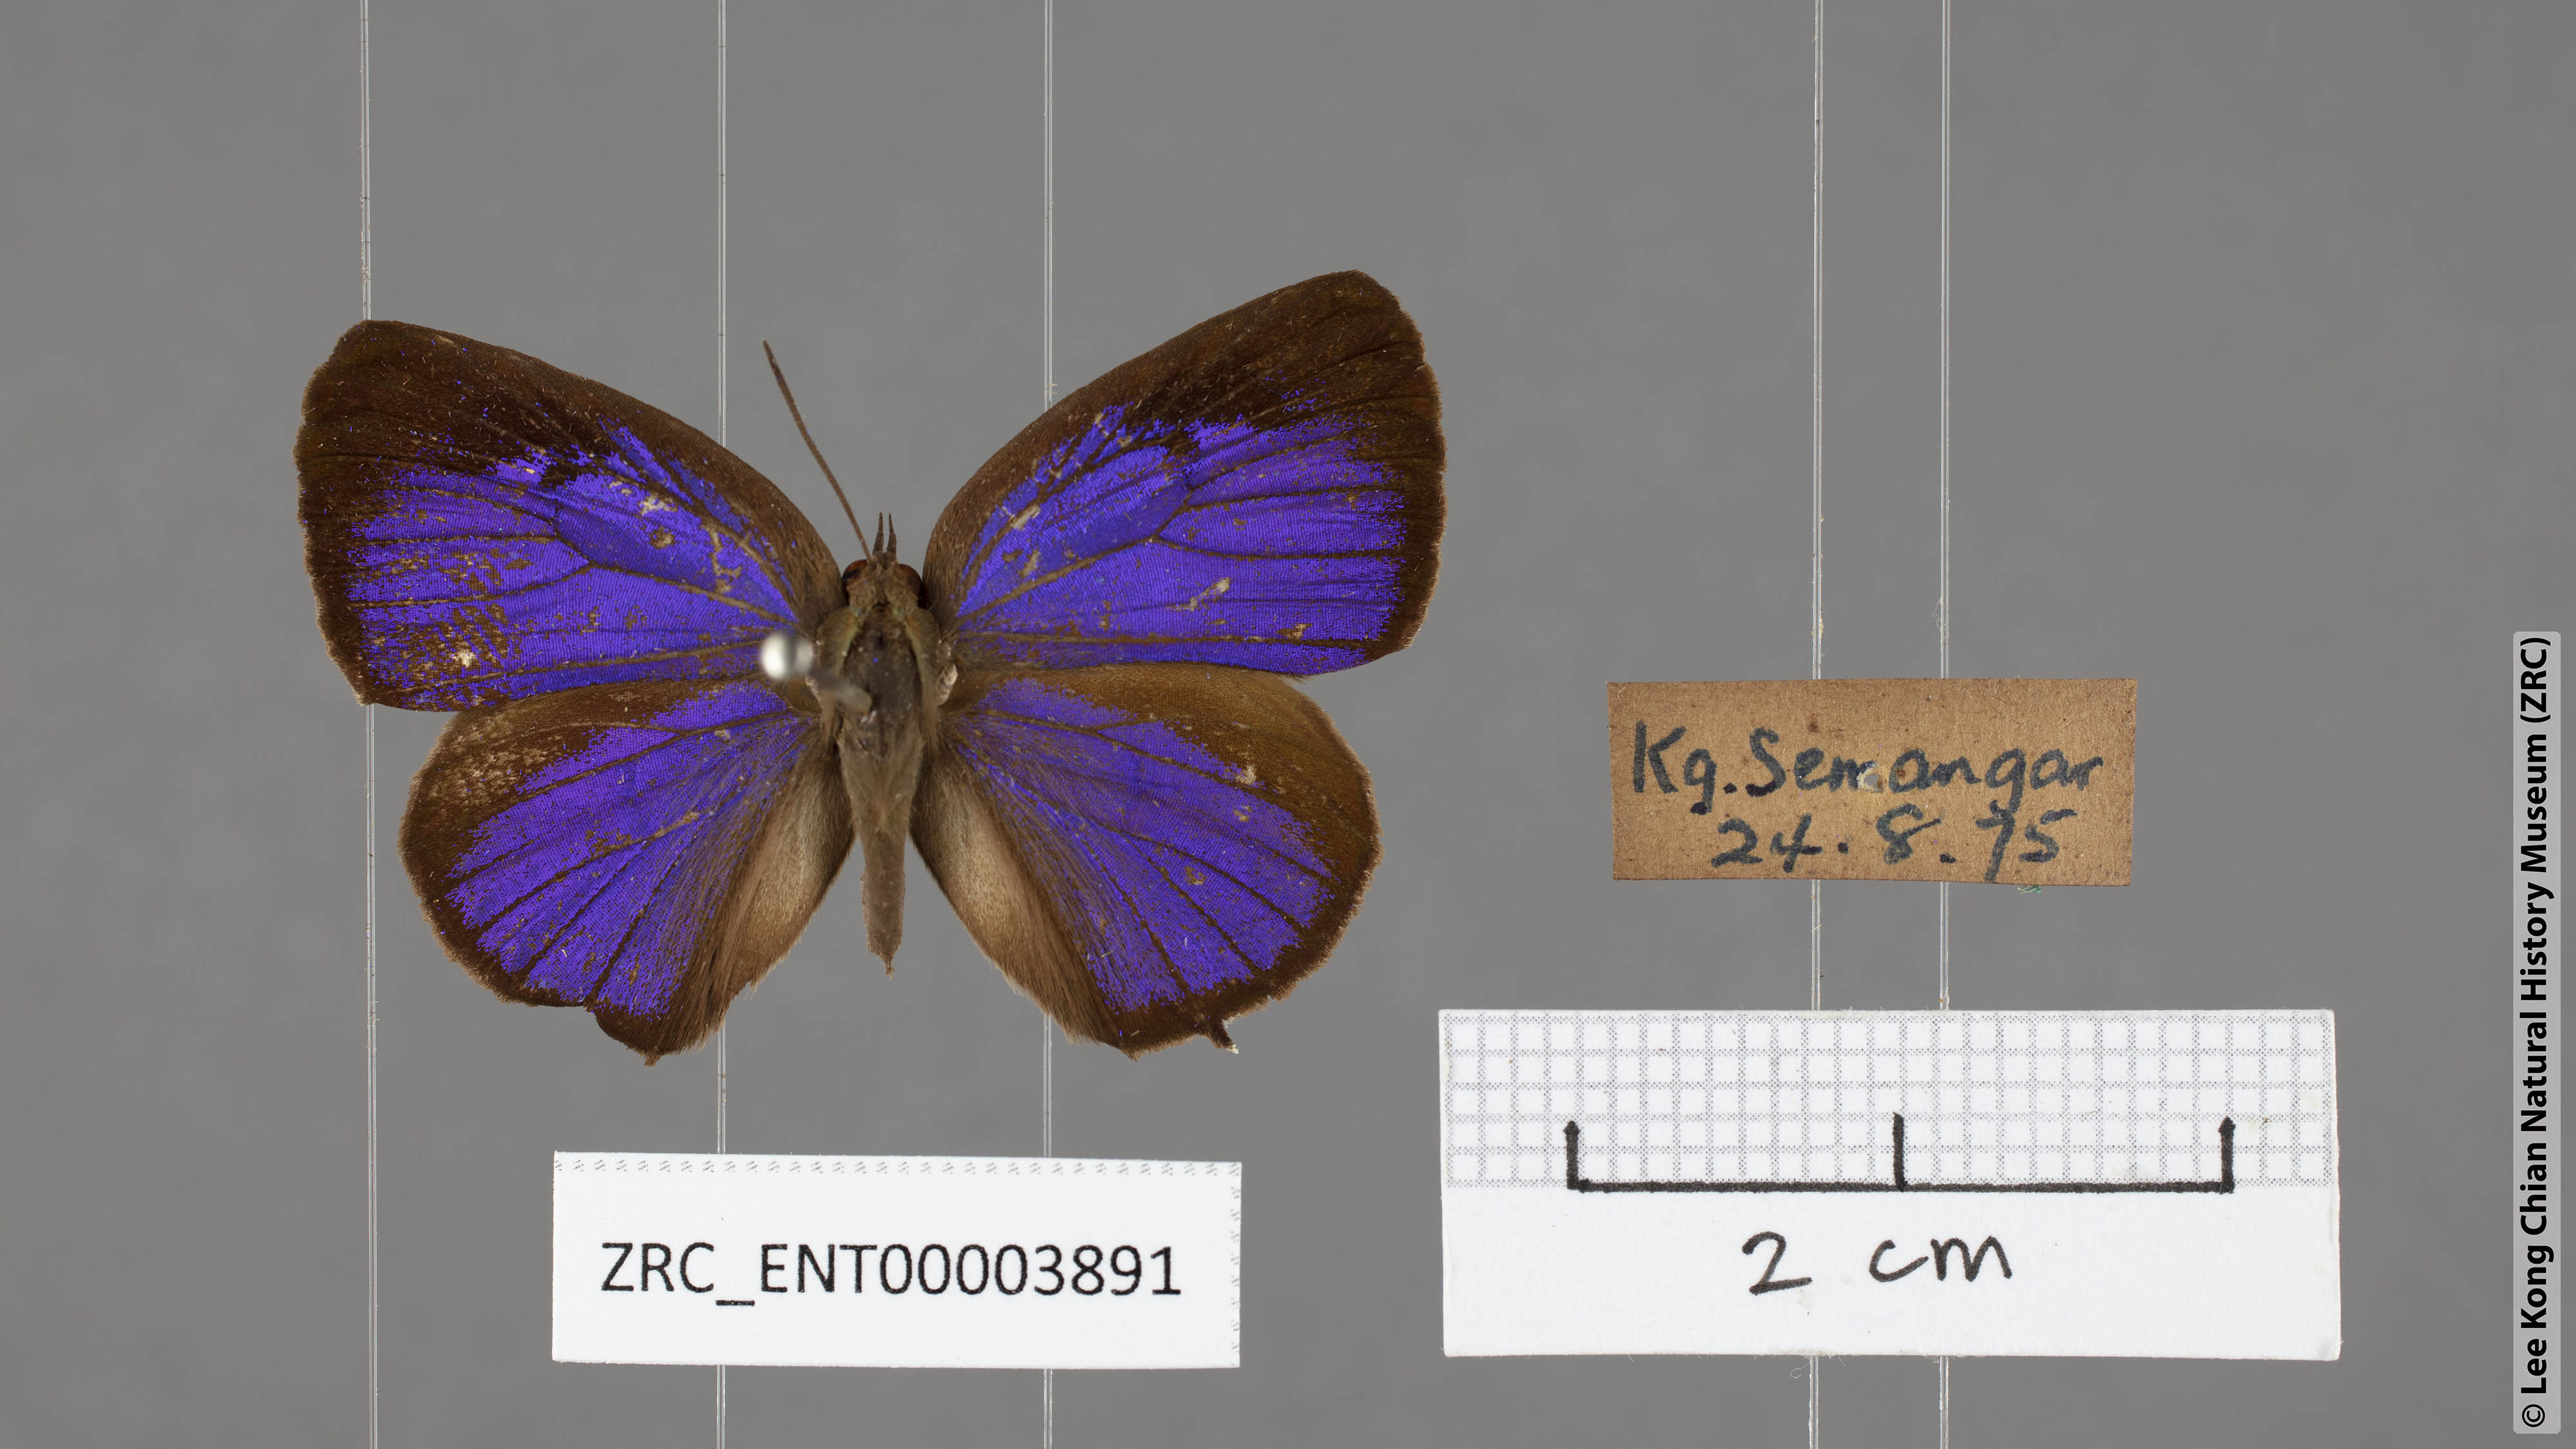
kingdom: Animalia
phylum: Arthropoda
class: Insecta
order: Lepidoptera
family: Lycaenidae
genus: Arhopala
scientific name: Arhopala buddha
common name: Buddha oakblue
